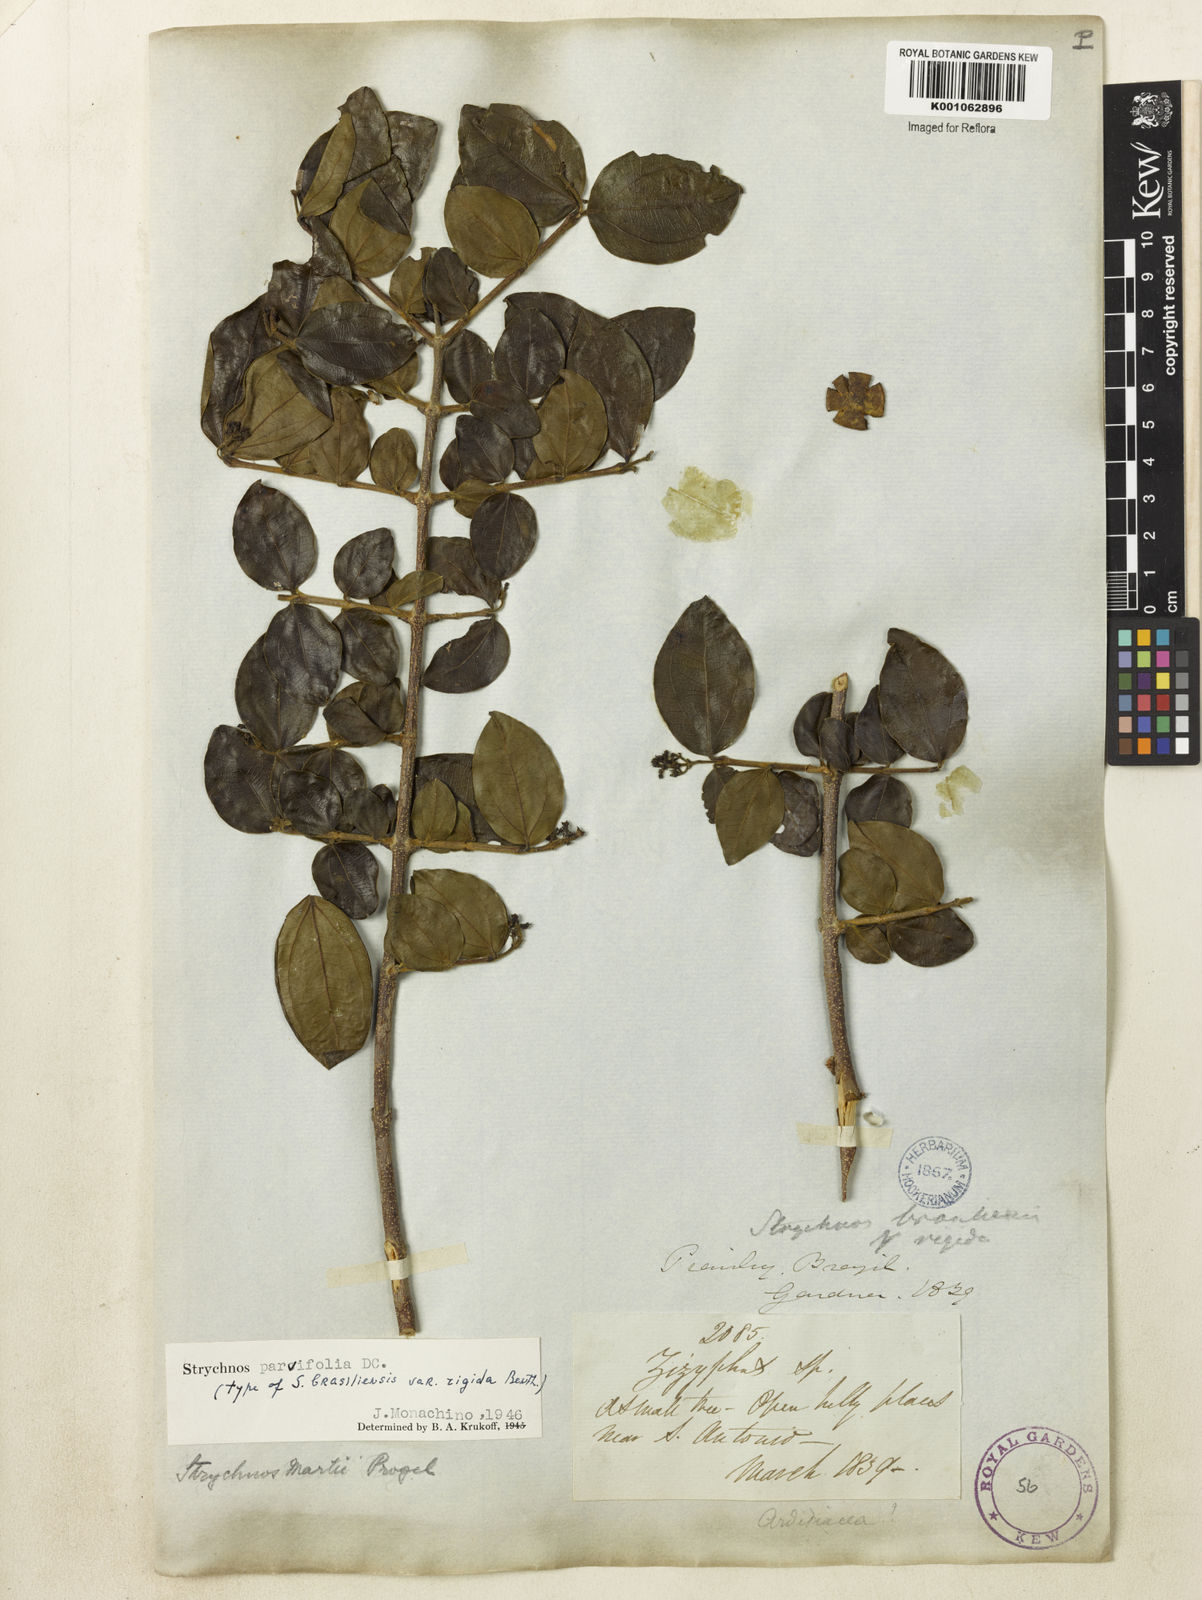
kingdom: Plantae
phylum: Tracheophyta
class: Magnoliopsida
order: Gentianales
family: Loganiaceae
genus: Strychnos
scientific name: Strychnos parvifolia
